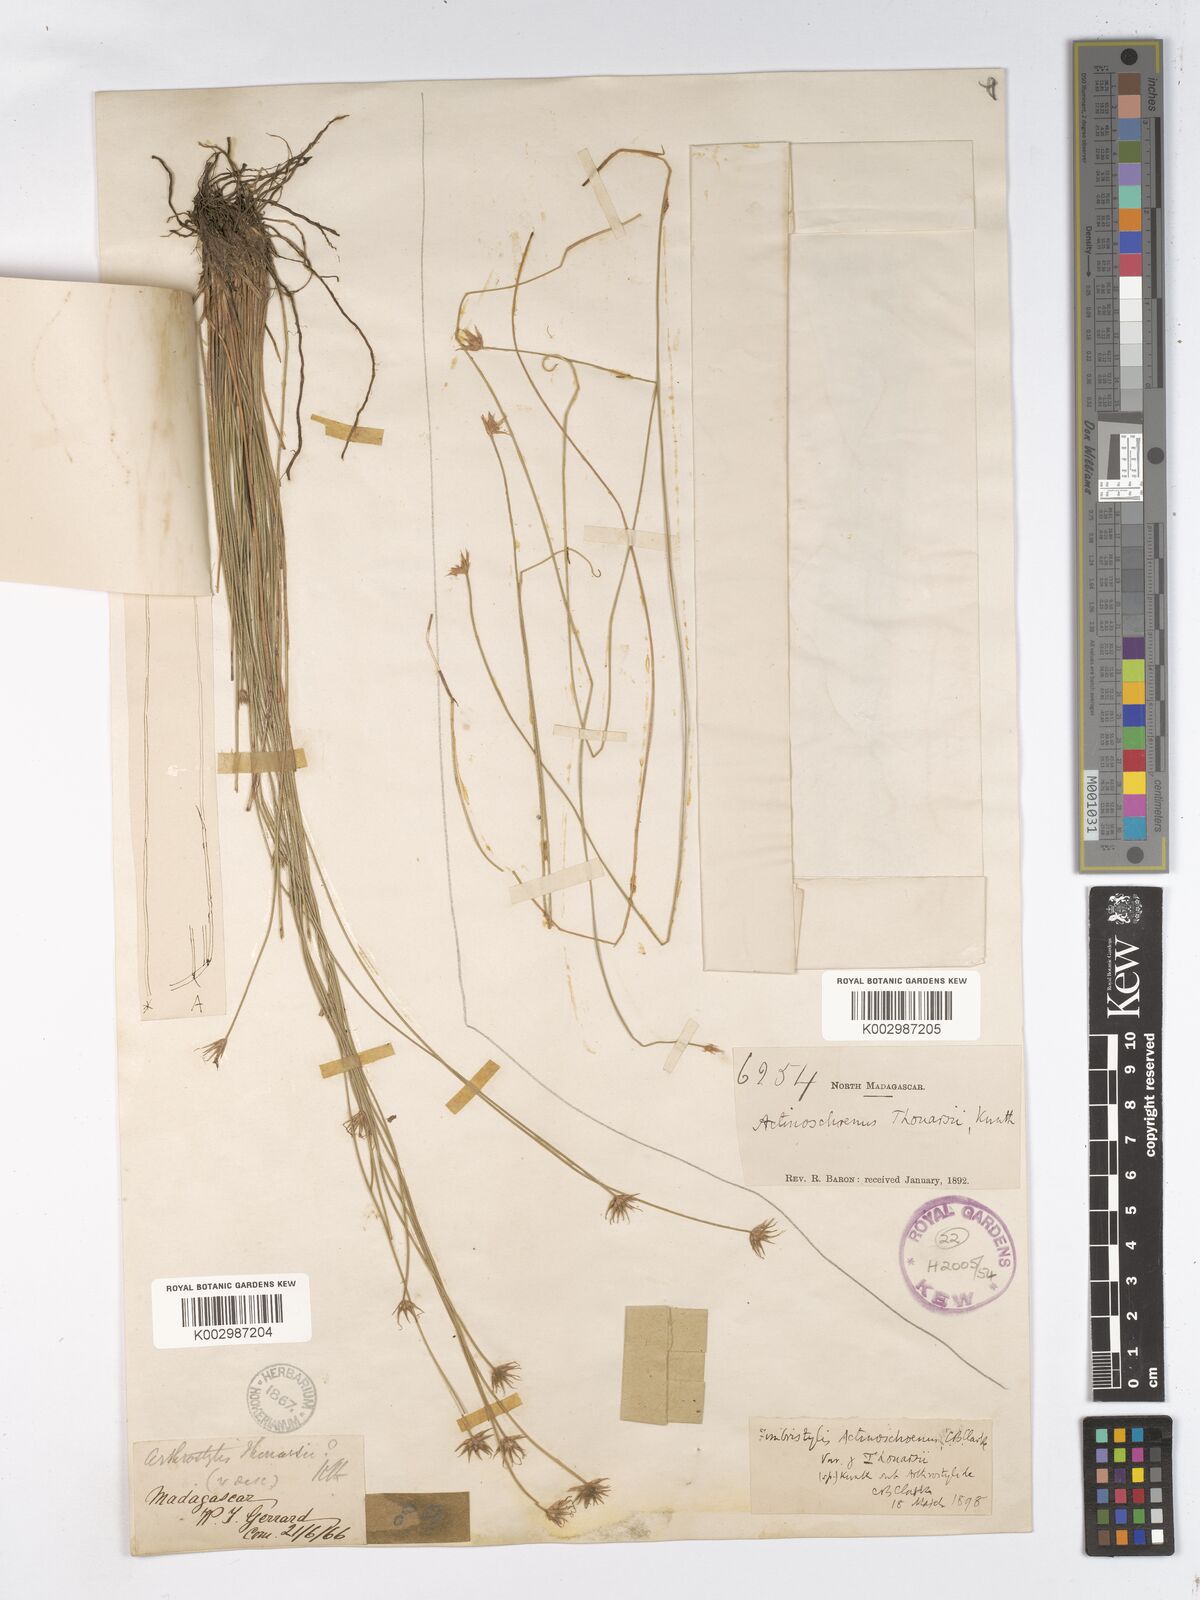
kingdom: Plantae
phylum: Tracheophyta
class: Liliopsida
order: Poales
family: Cyperaceae
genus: Actinoschoenus
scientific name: Actinoschoenus aphyllus
